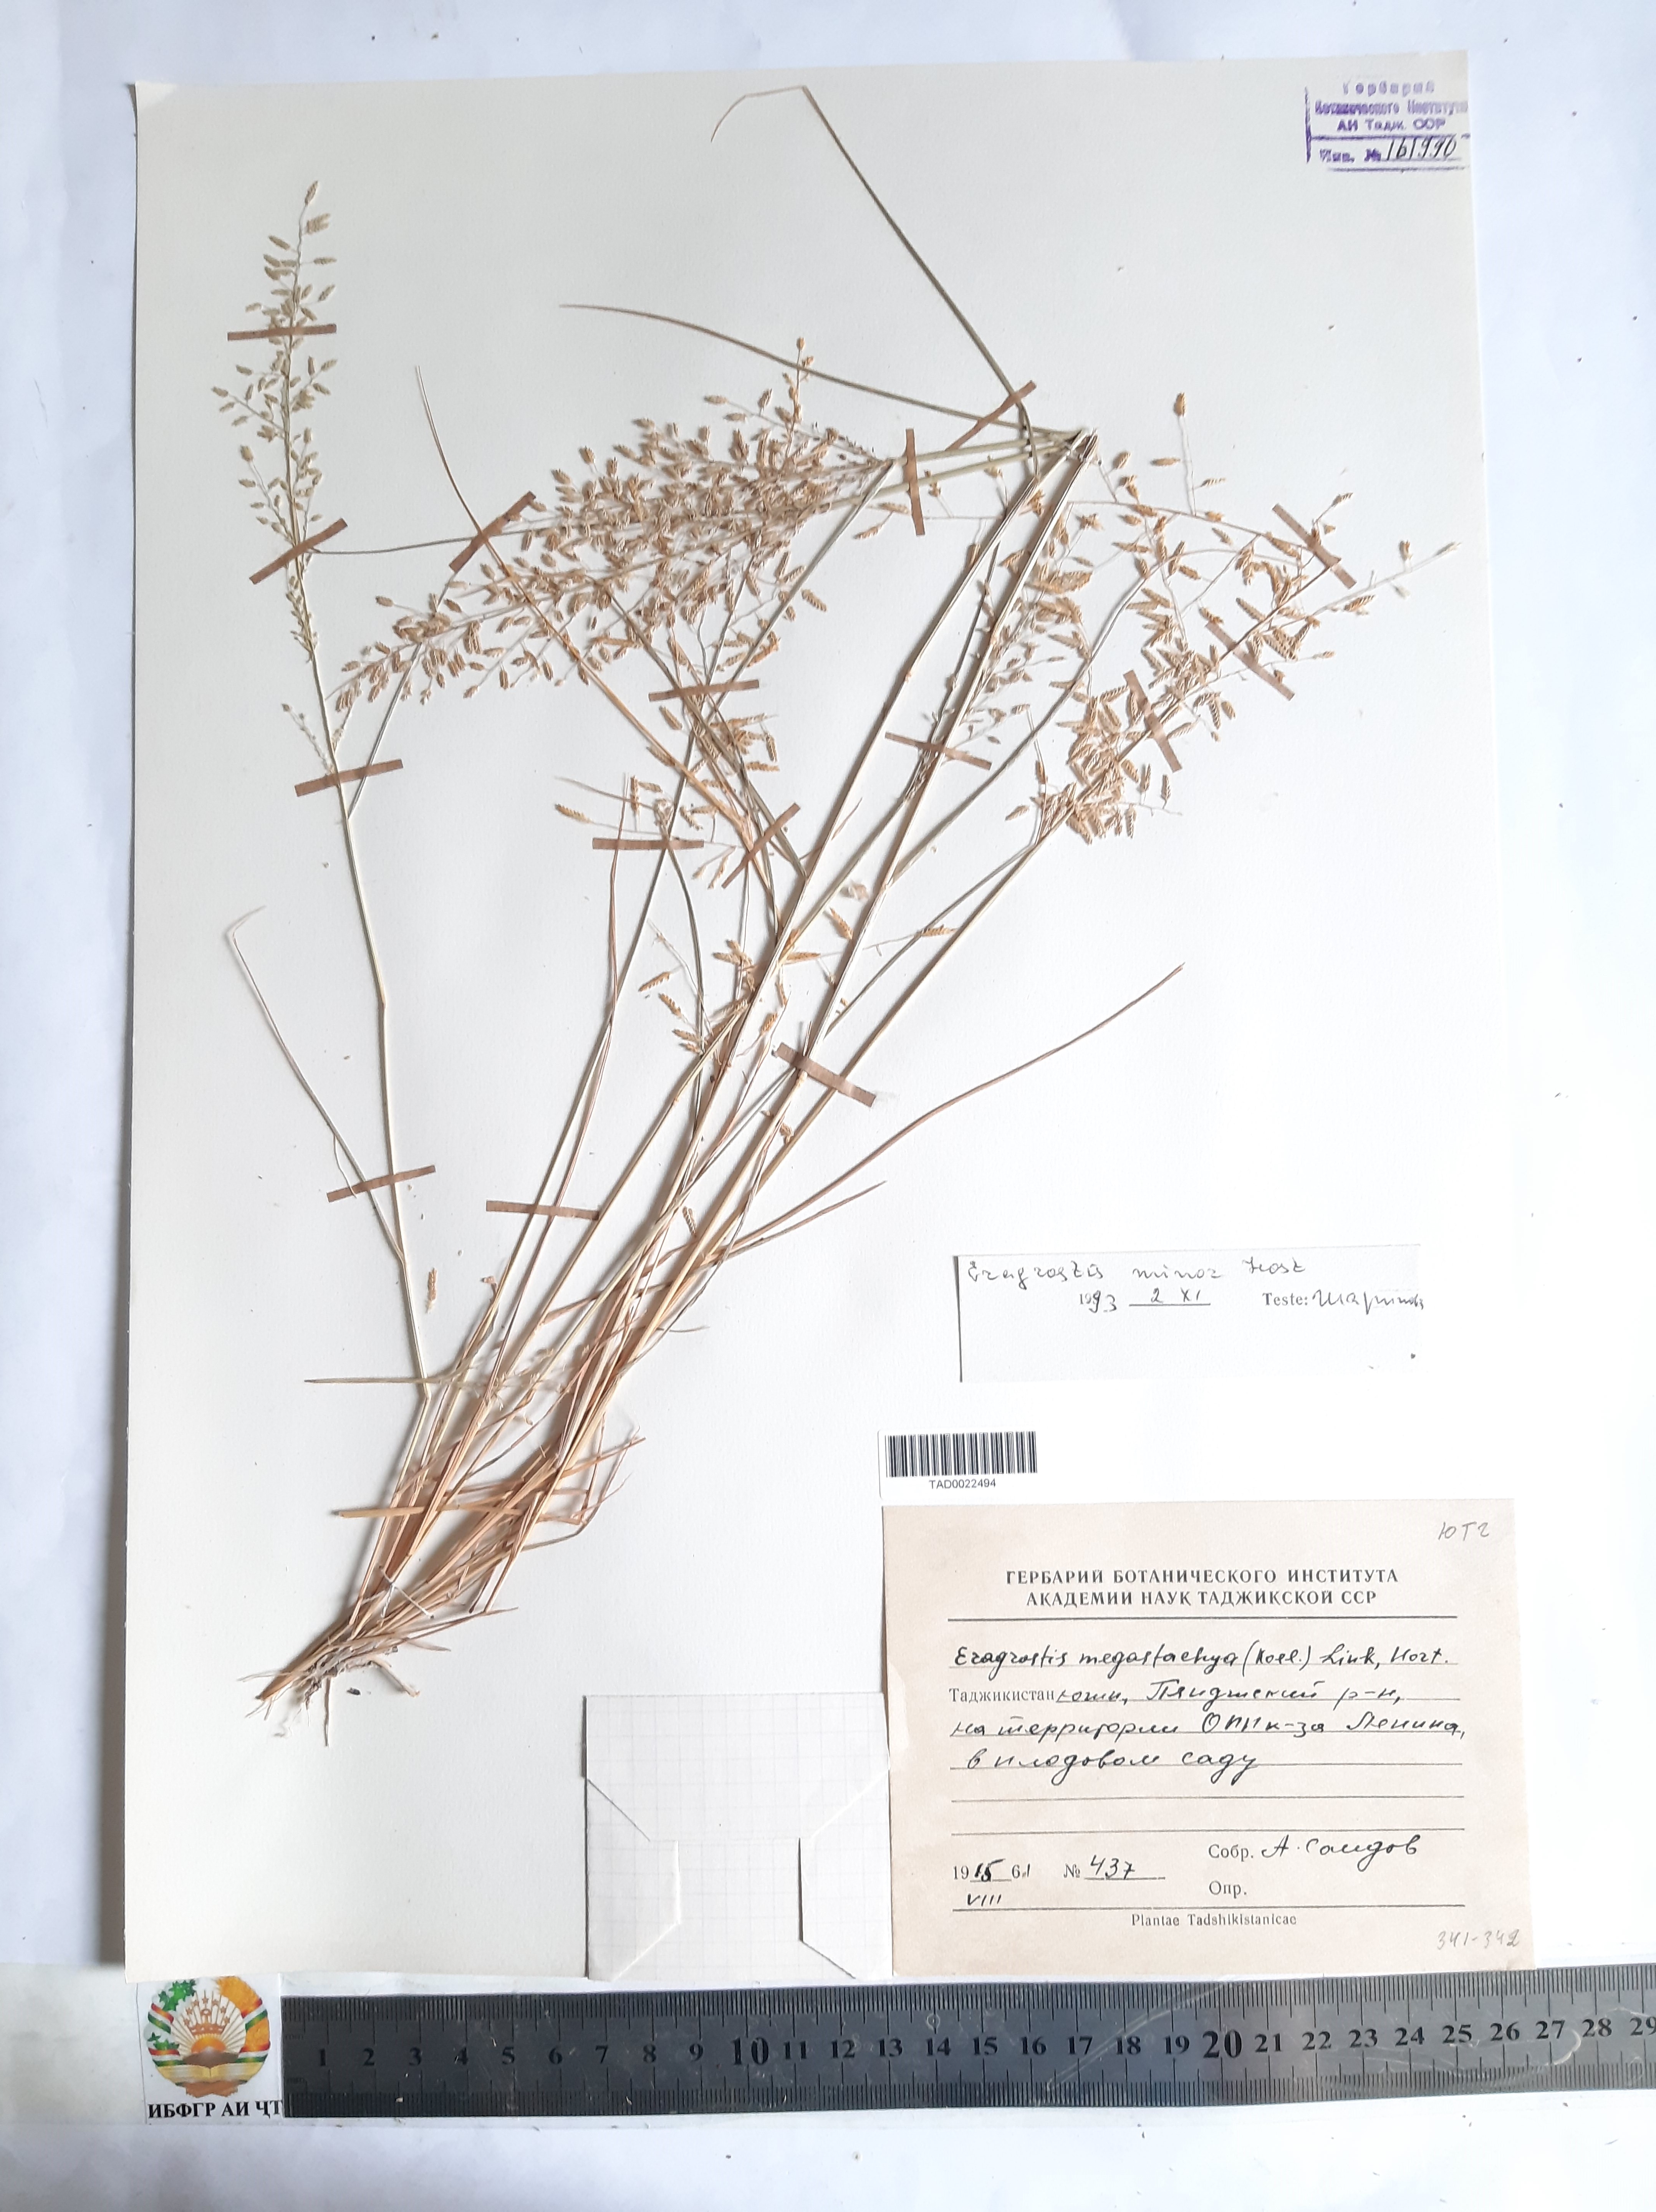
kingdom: Plantae
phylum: Tracheophyta
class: Liliopsida
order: Poales
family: Poaceae
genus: Eragrostis
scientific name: Eragrostis minor
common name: Small love-grass
